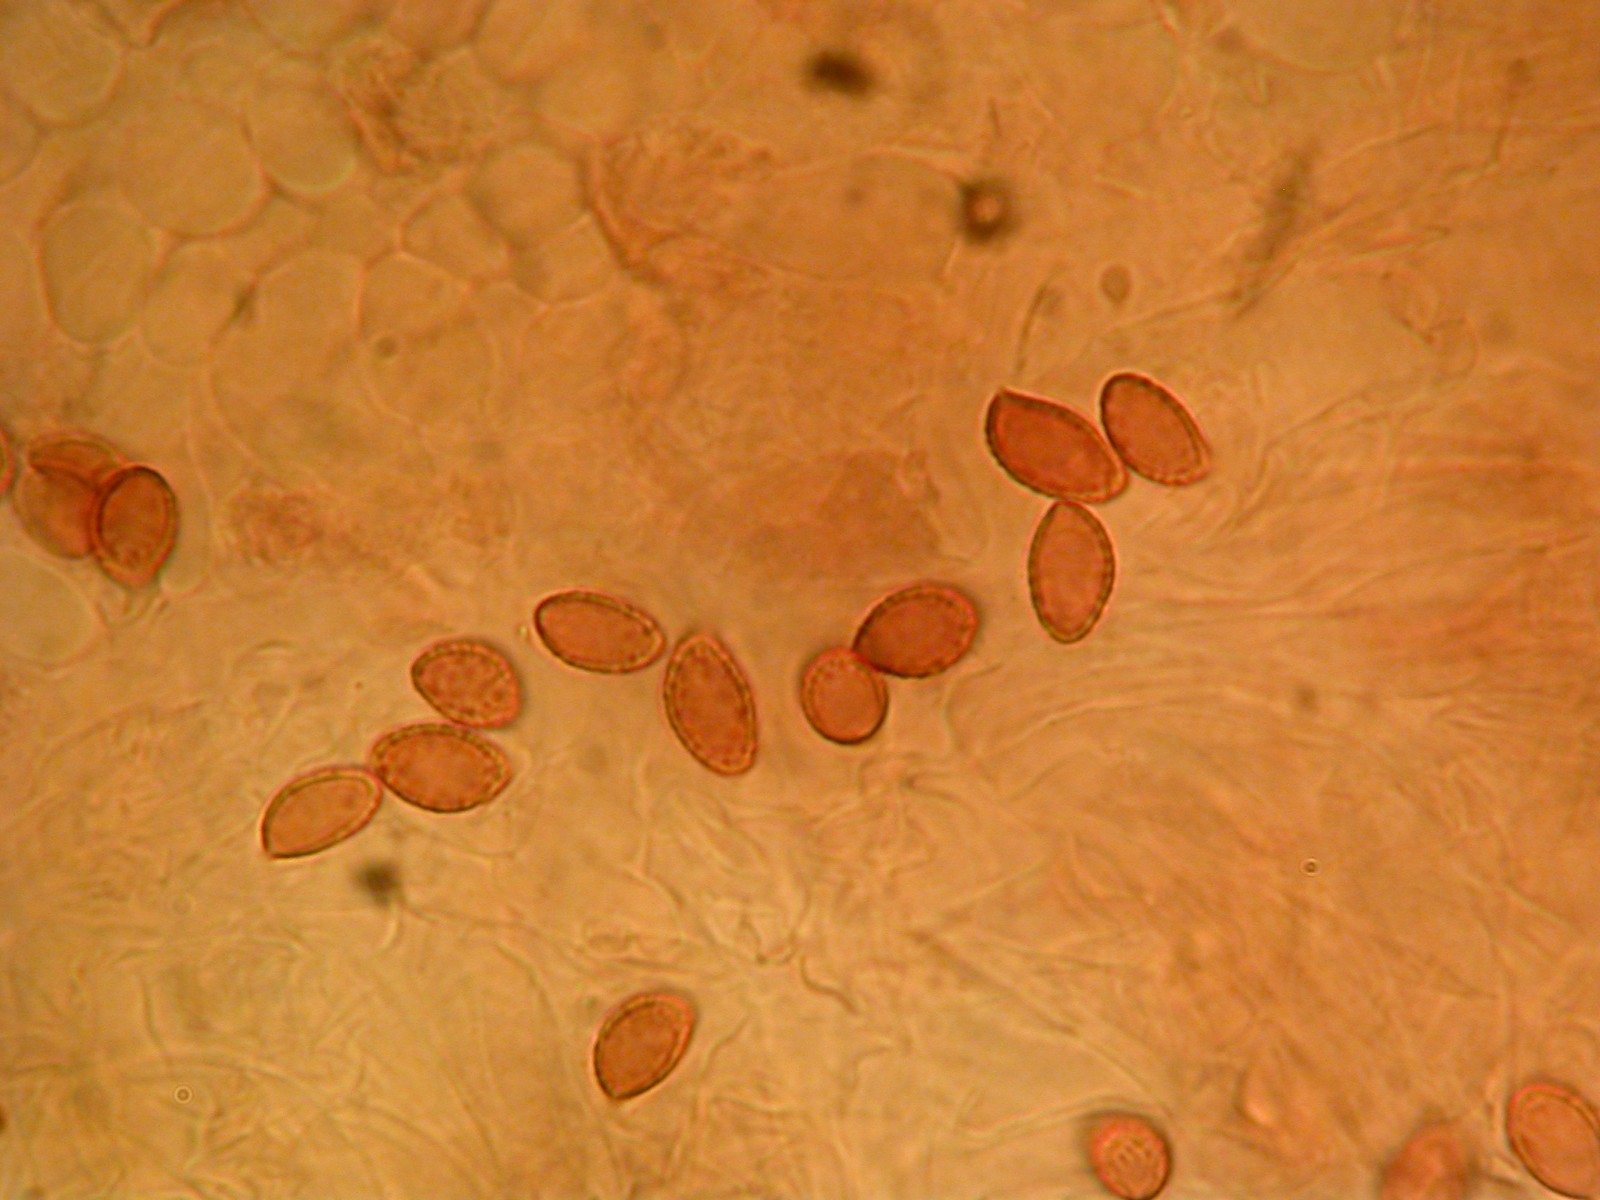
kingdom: Fungi
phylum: Basidiomycota
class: Agaricomycetes
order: Agaricales
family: Cortinariaceae
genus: Cortinarius
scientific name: Cortinarius
